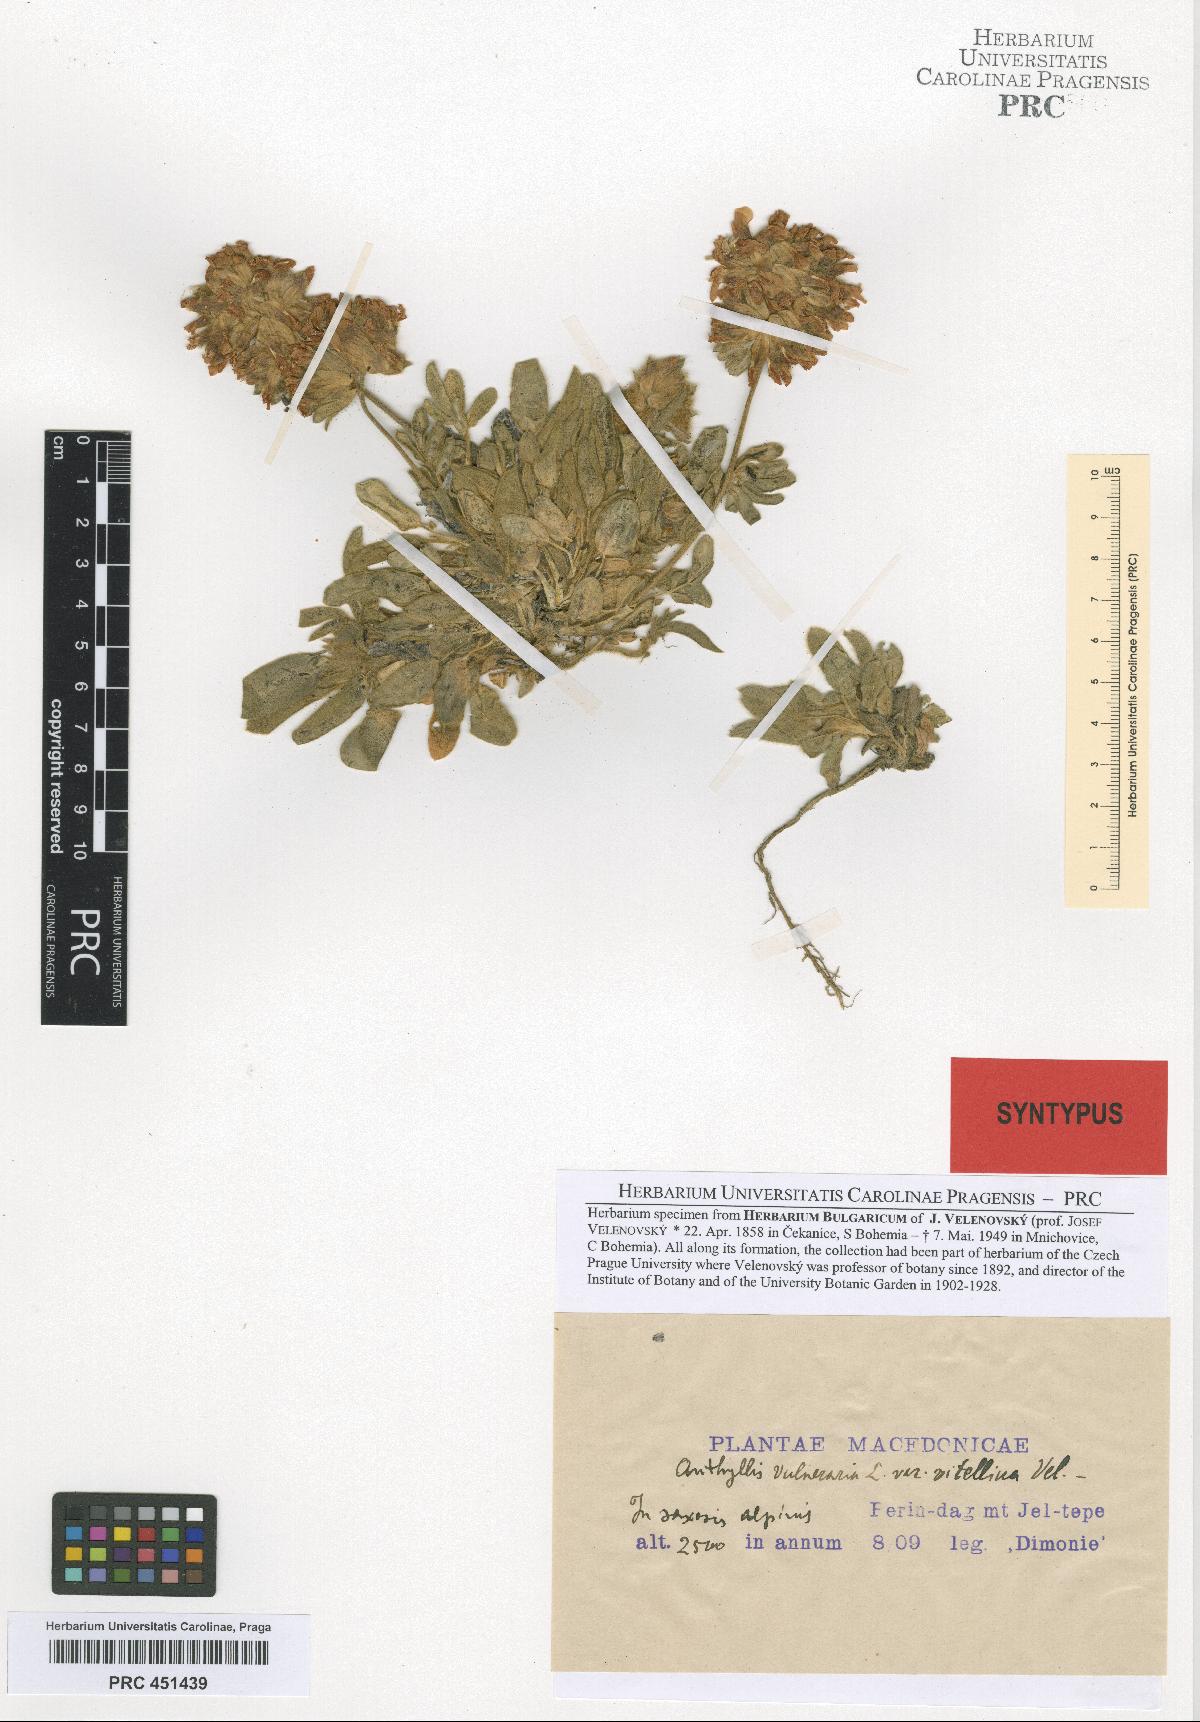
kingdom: Plantae
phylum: Tracheophyta
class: Magnoliopsida
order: Fabales
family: Fabaceae
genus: Anthyllis
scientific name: Anthyllis vulneraria
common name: Kidney vetch
